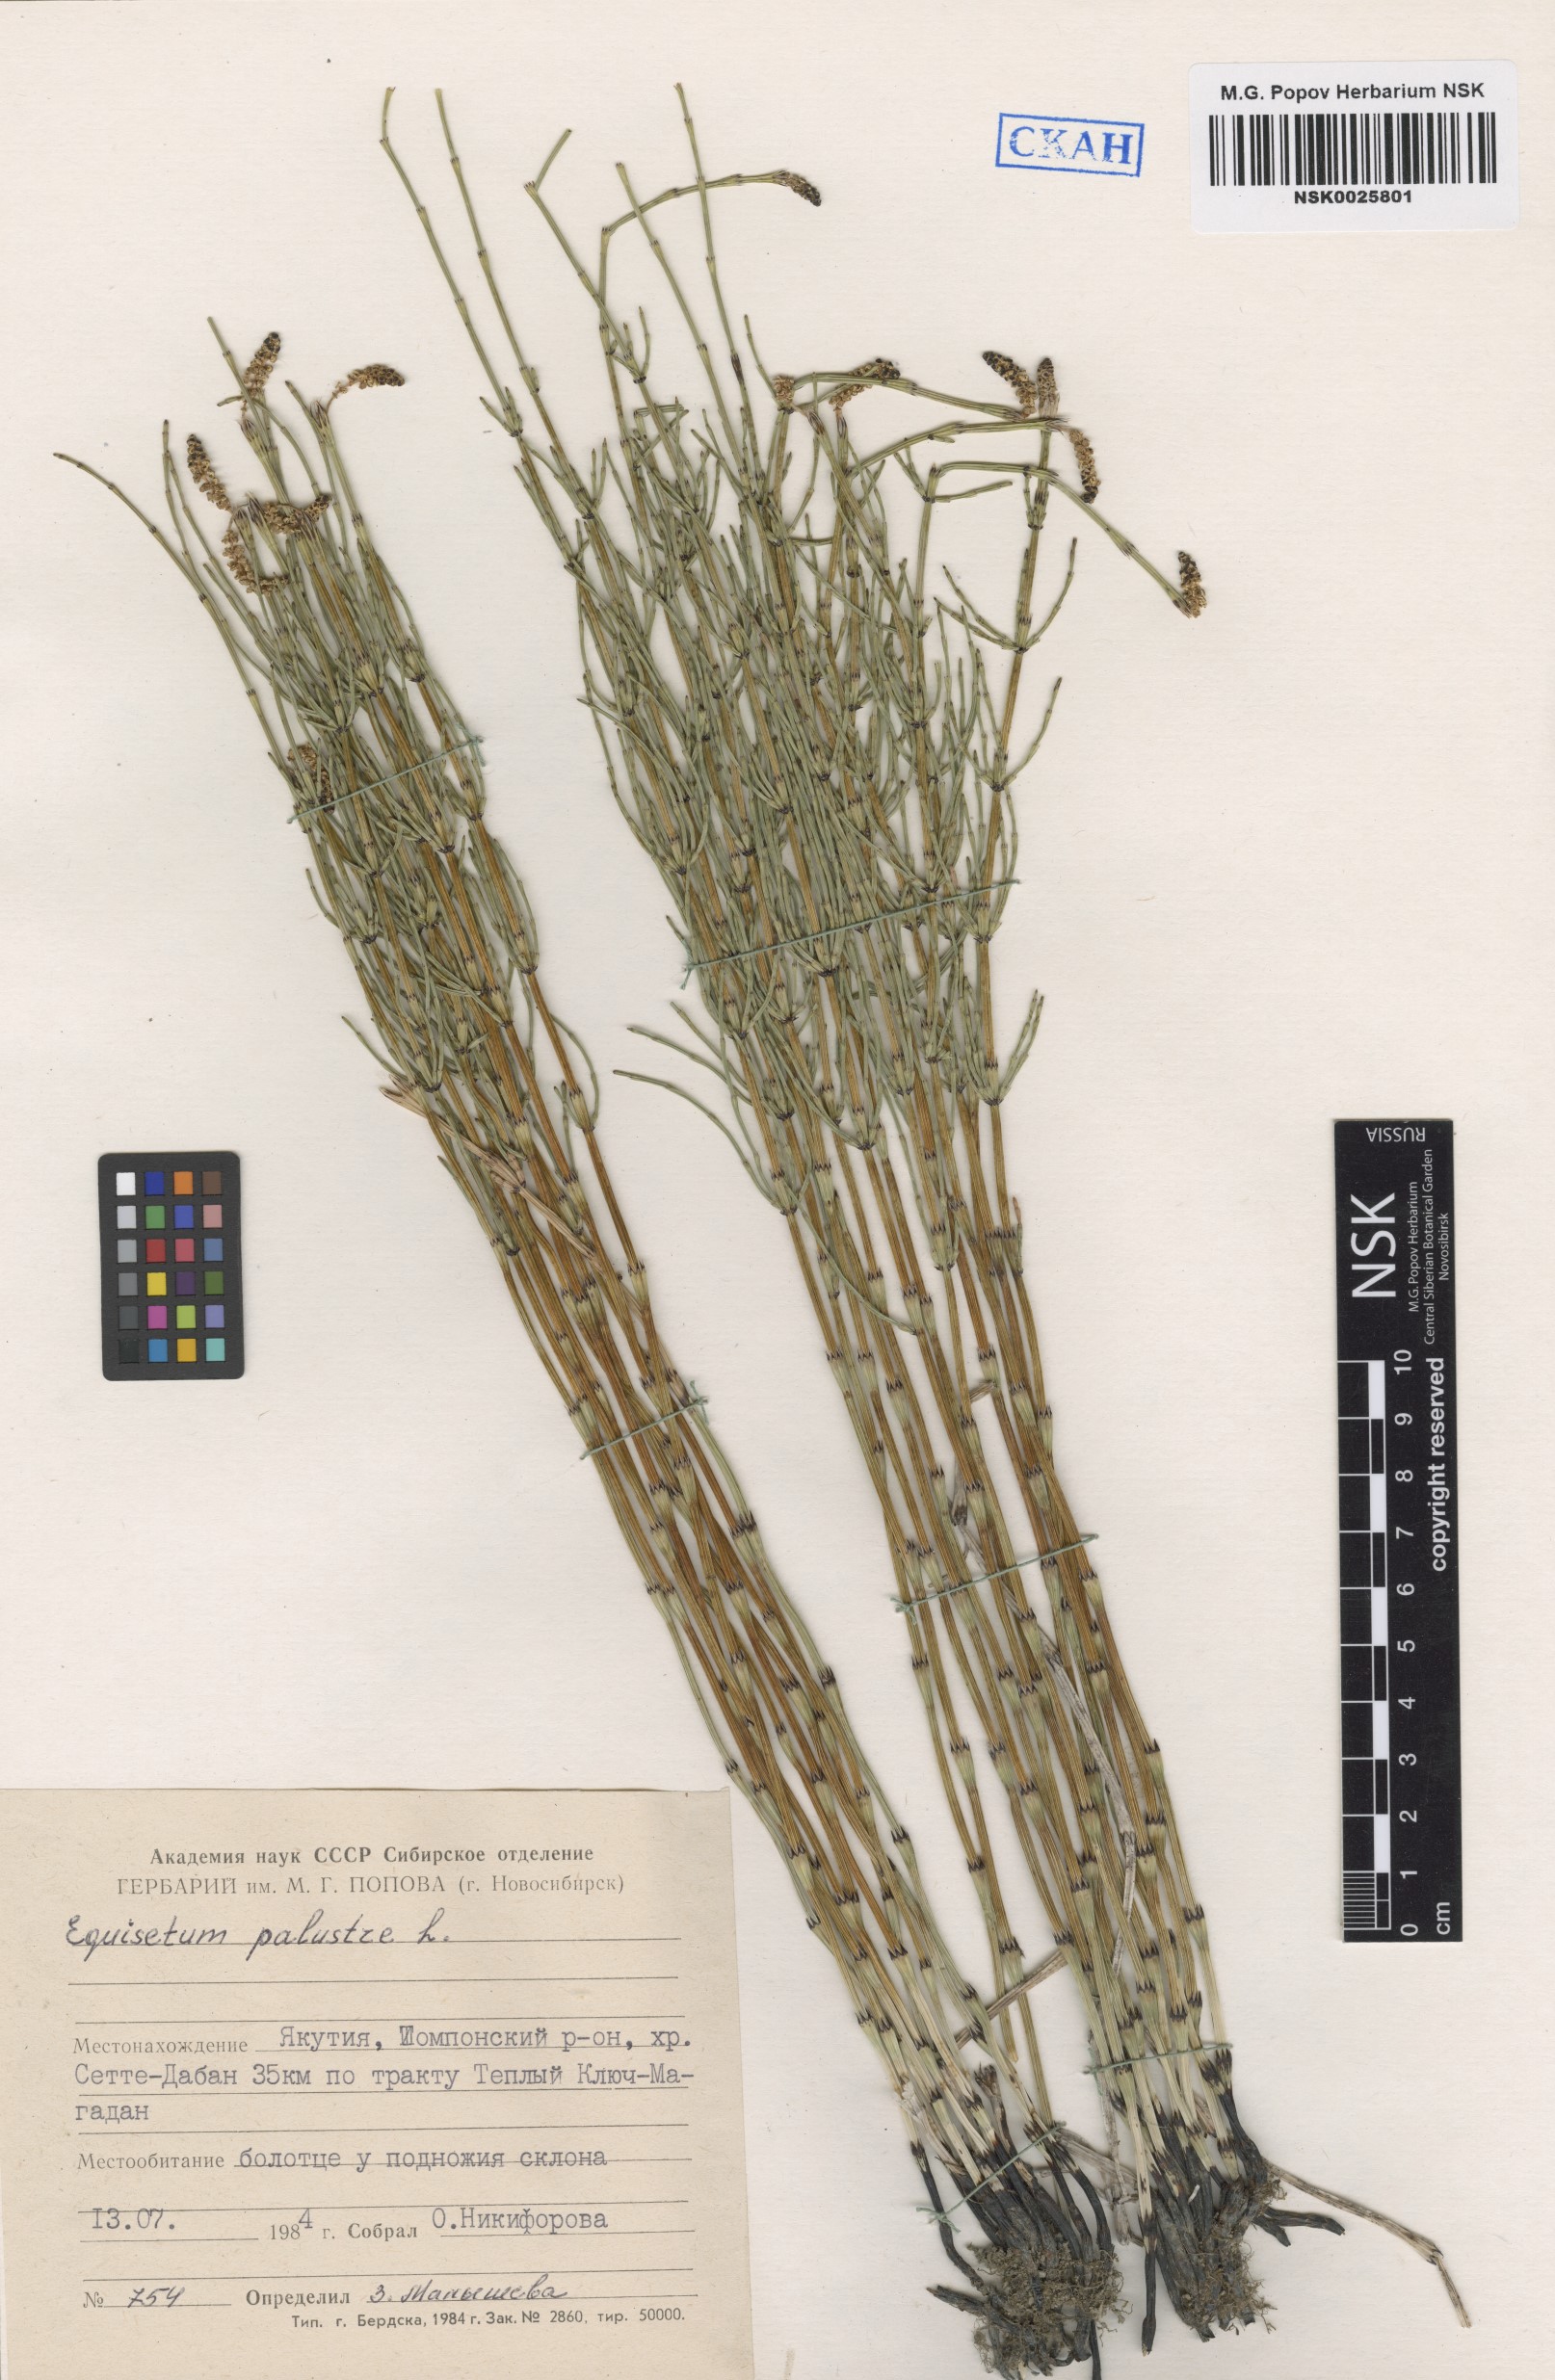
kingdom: Plantae
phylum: Tracheophyta
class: Polypodiopsida
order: Equisetales
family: Equisetaceae
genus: Equisetum
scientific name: Equisetum palustre
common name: Marsh horsetail
